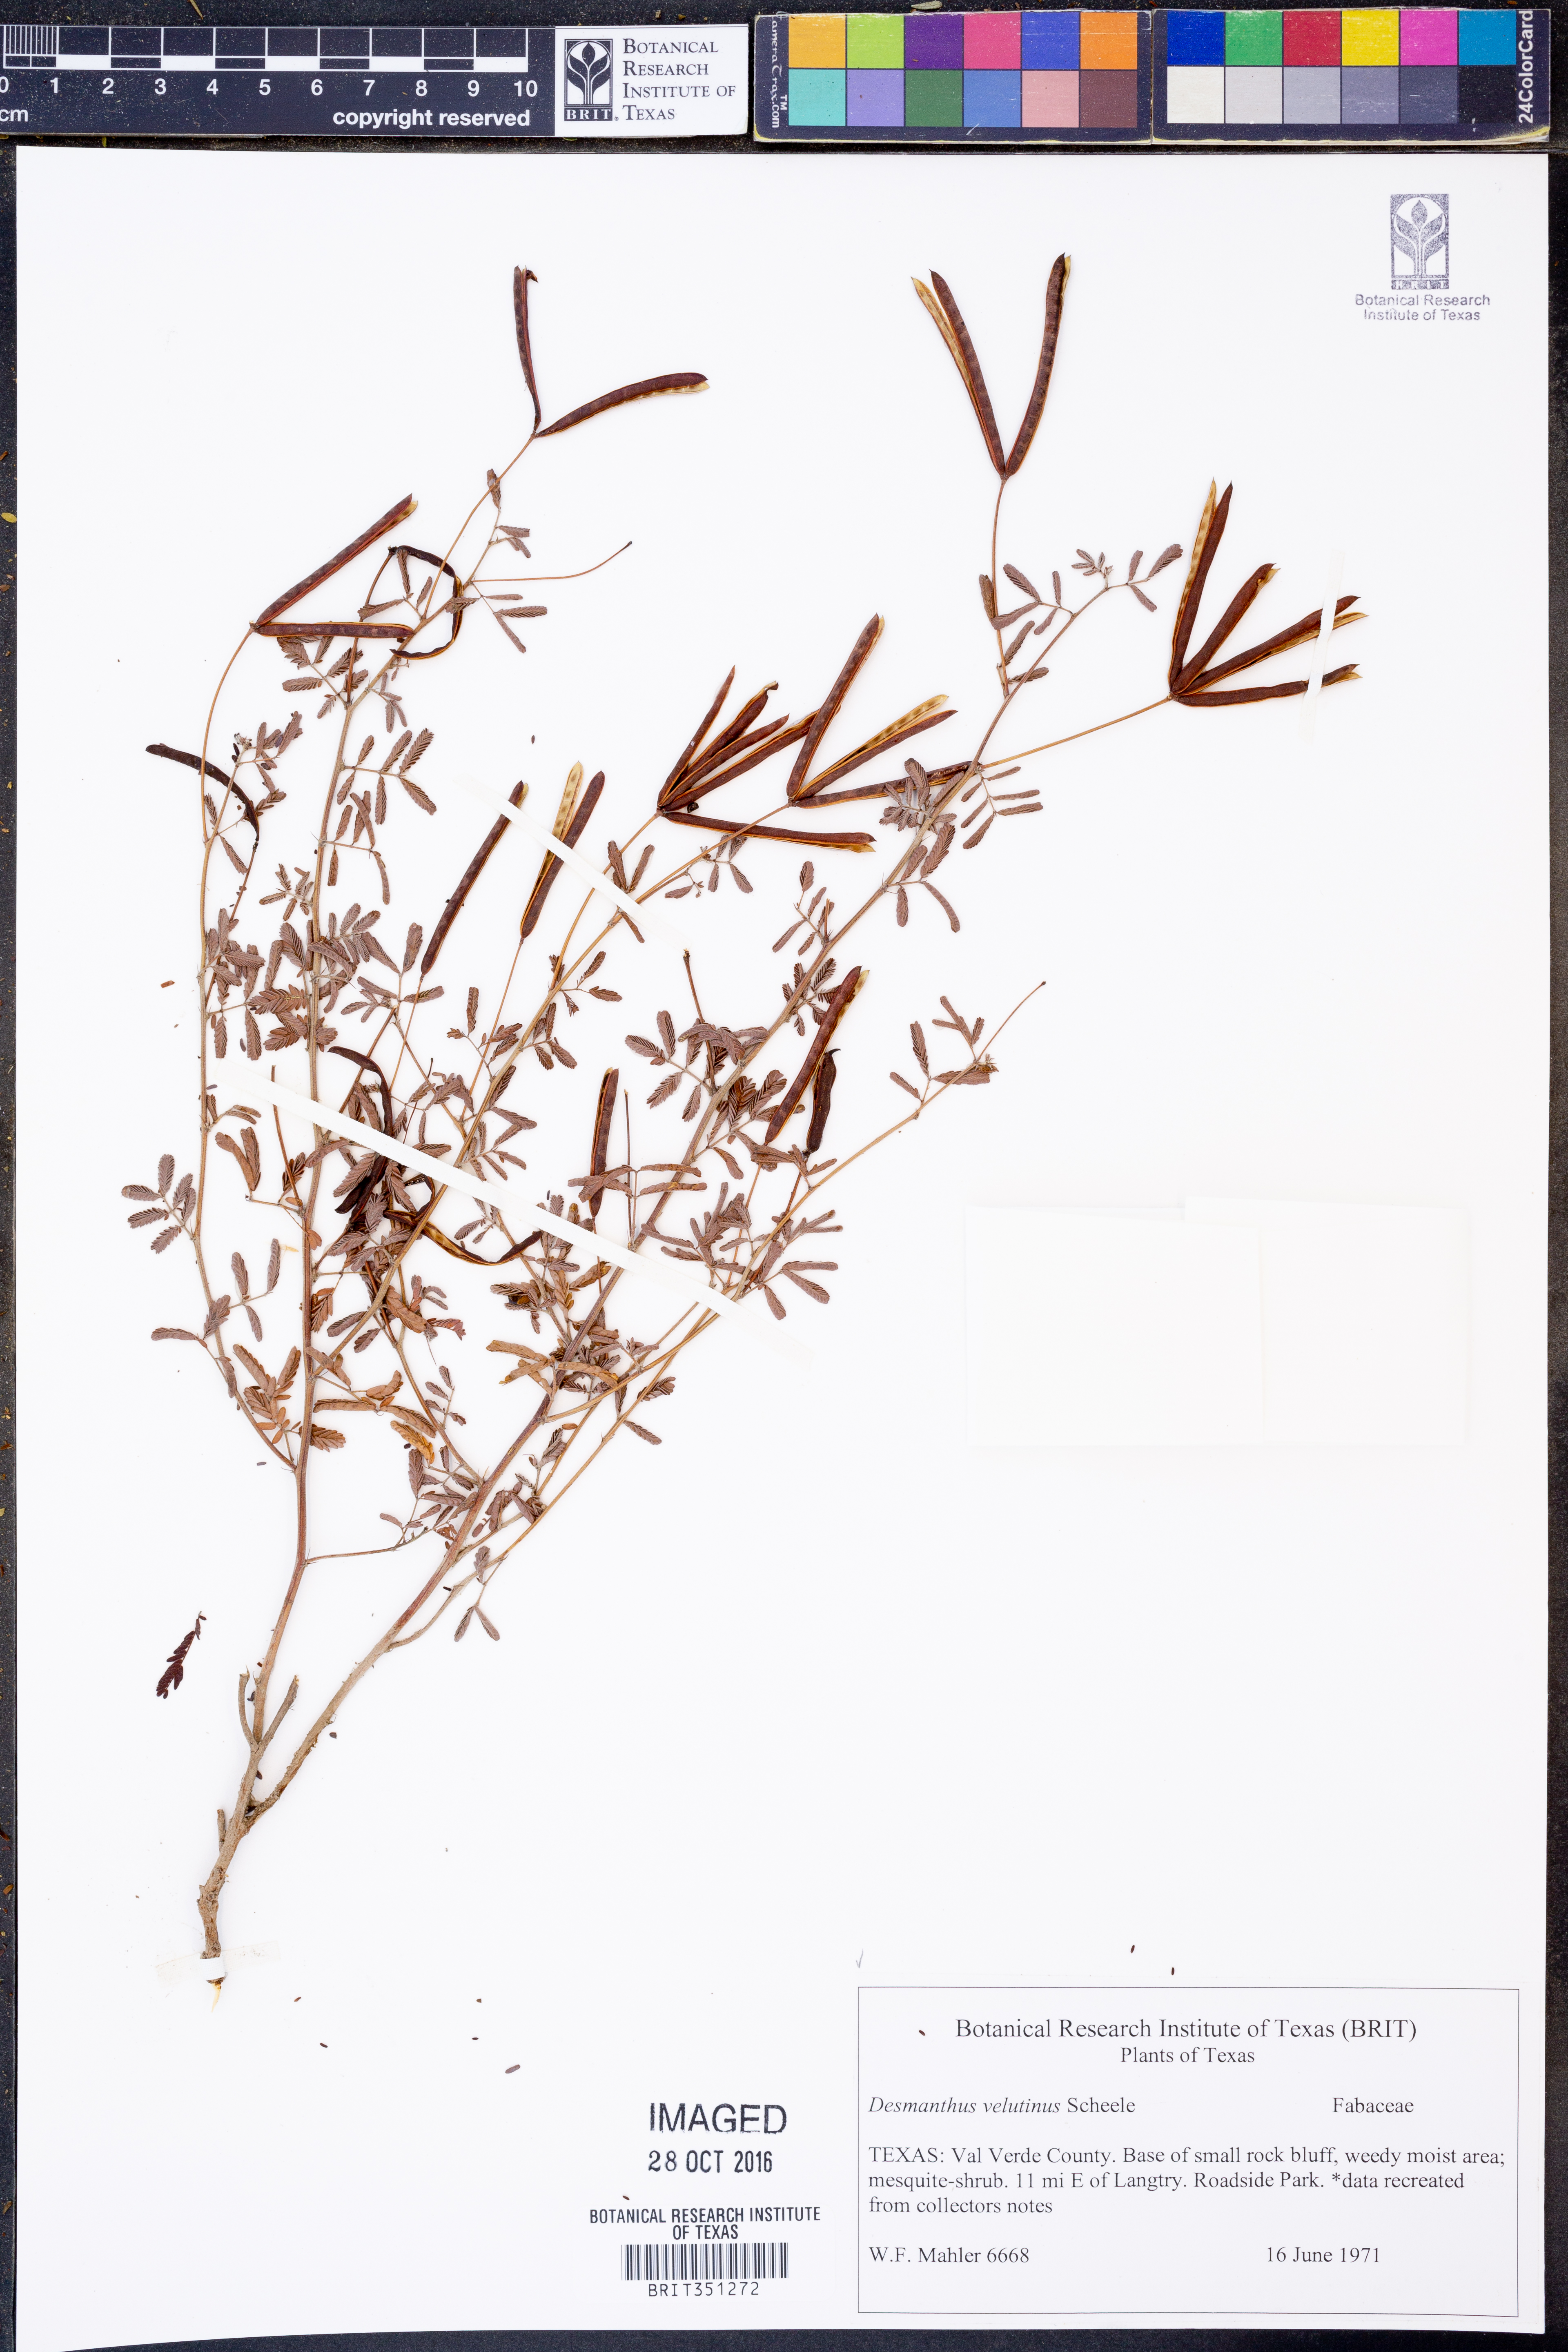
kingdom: Plantae
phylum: Tracheophyta
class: Magnoliopsida
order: Fabales
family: Fabaceae
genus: Desmanthus
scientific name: Desmanthus velutinus
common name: Velvet bundle-flower
